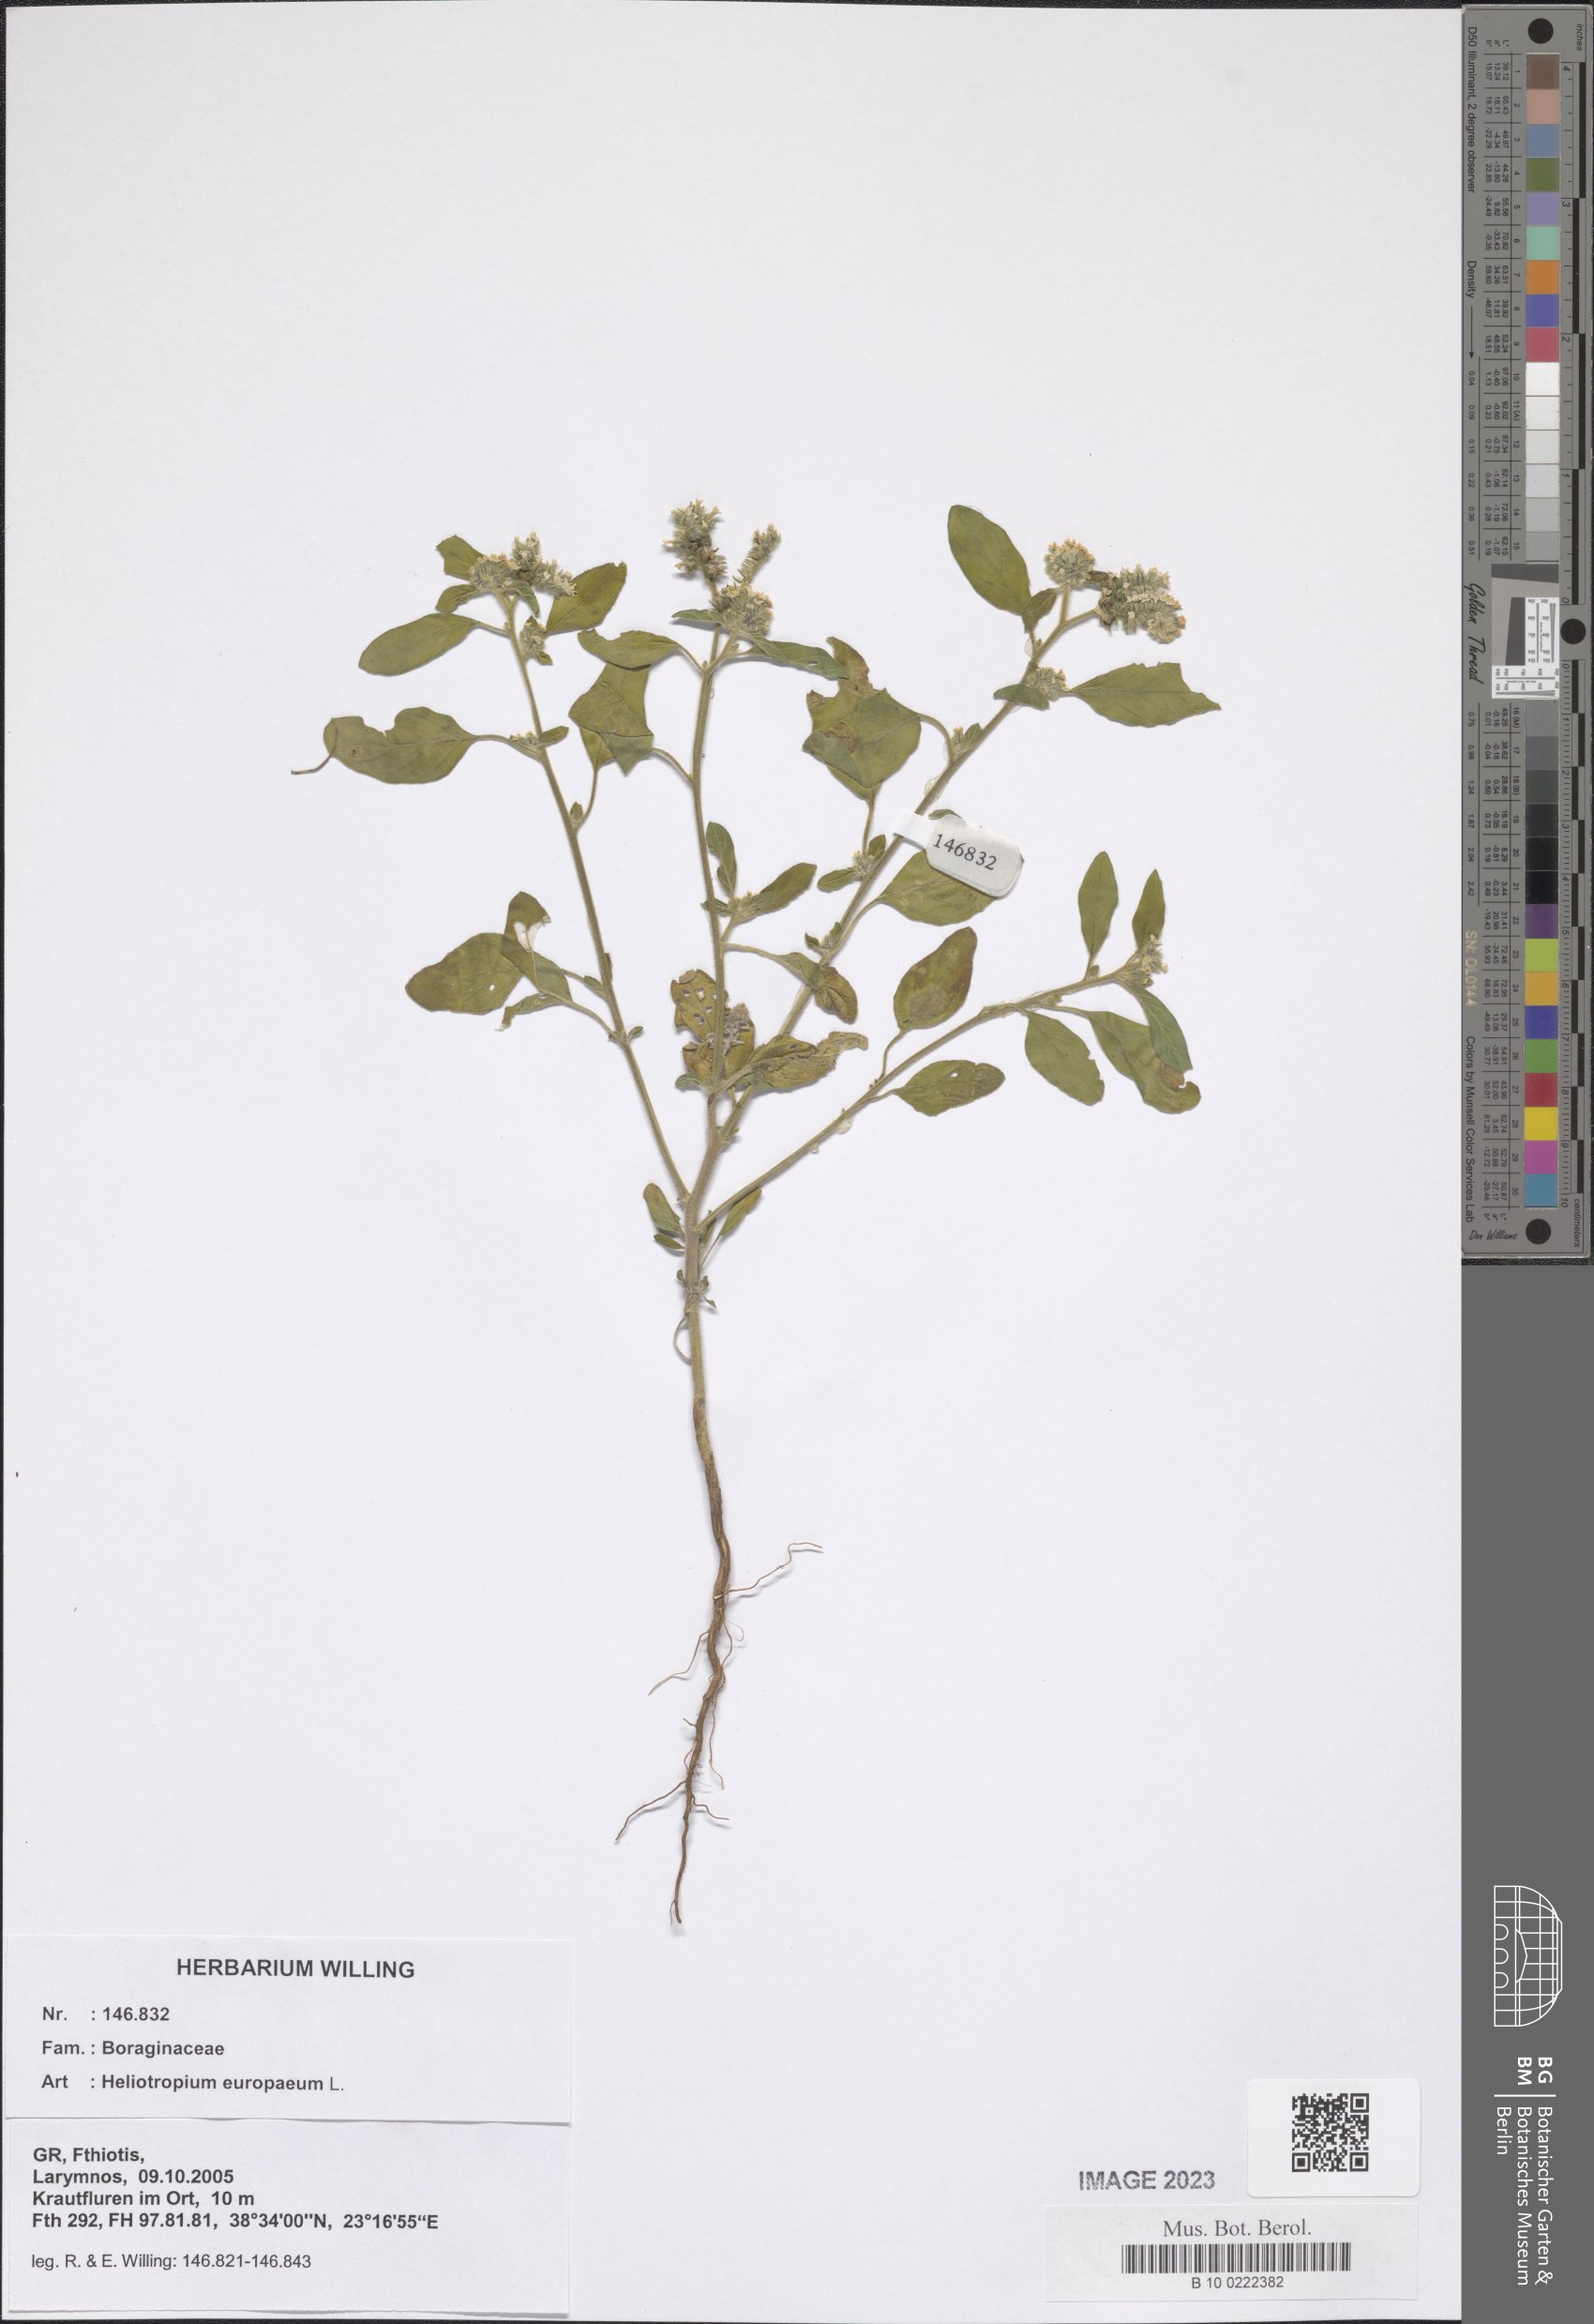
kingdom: Plantae
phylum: Tracheophyta
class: Magnoliopsida
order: Boraginales
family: Heliotropiaceae
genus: Heliotropium
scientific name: Heliotropium europaeum
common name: European heliotrope
